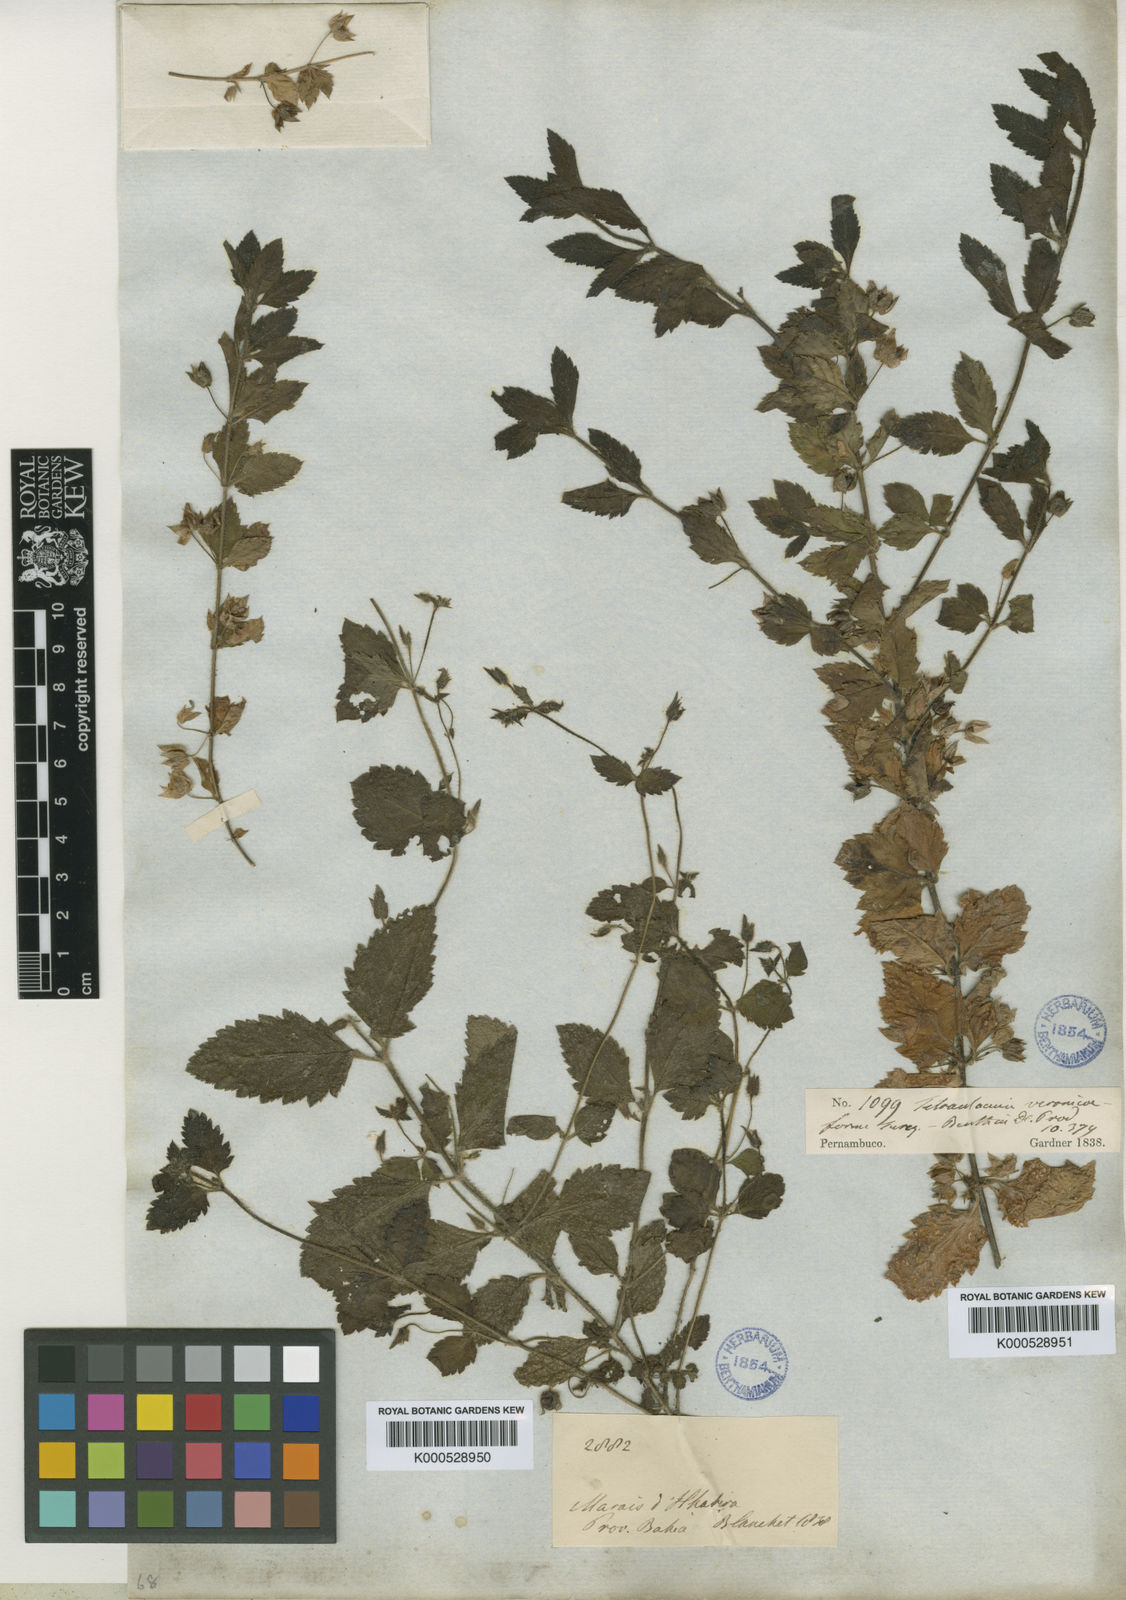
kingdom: Plantae
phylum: Tracheophyta
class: Magnoliopsida
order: Lamiales
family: Plantaginaceae
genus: Tetraulacium
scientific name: Tetraulacium veroniciforme
